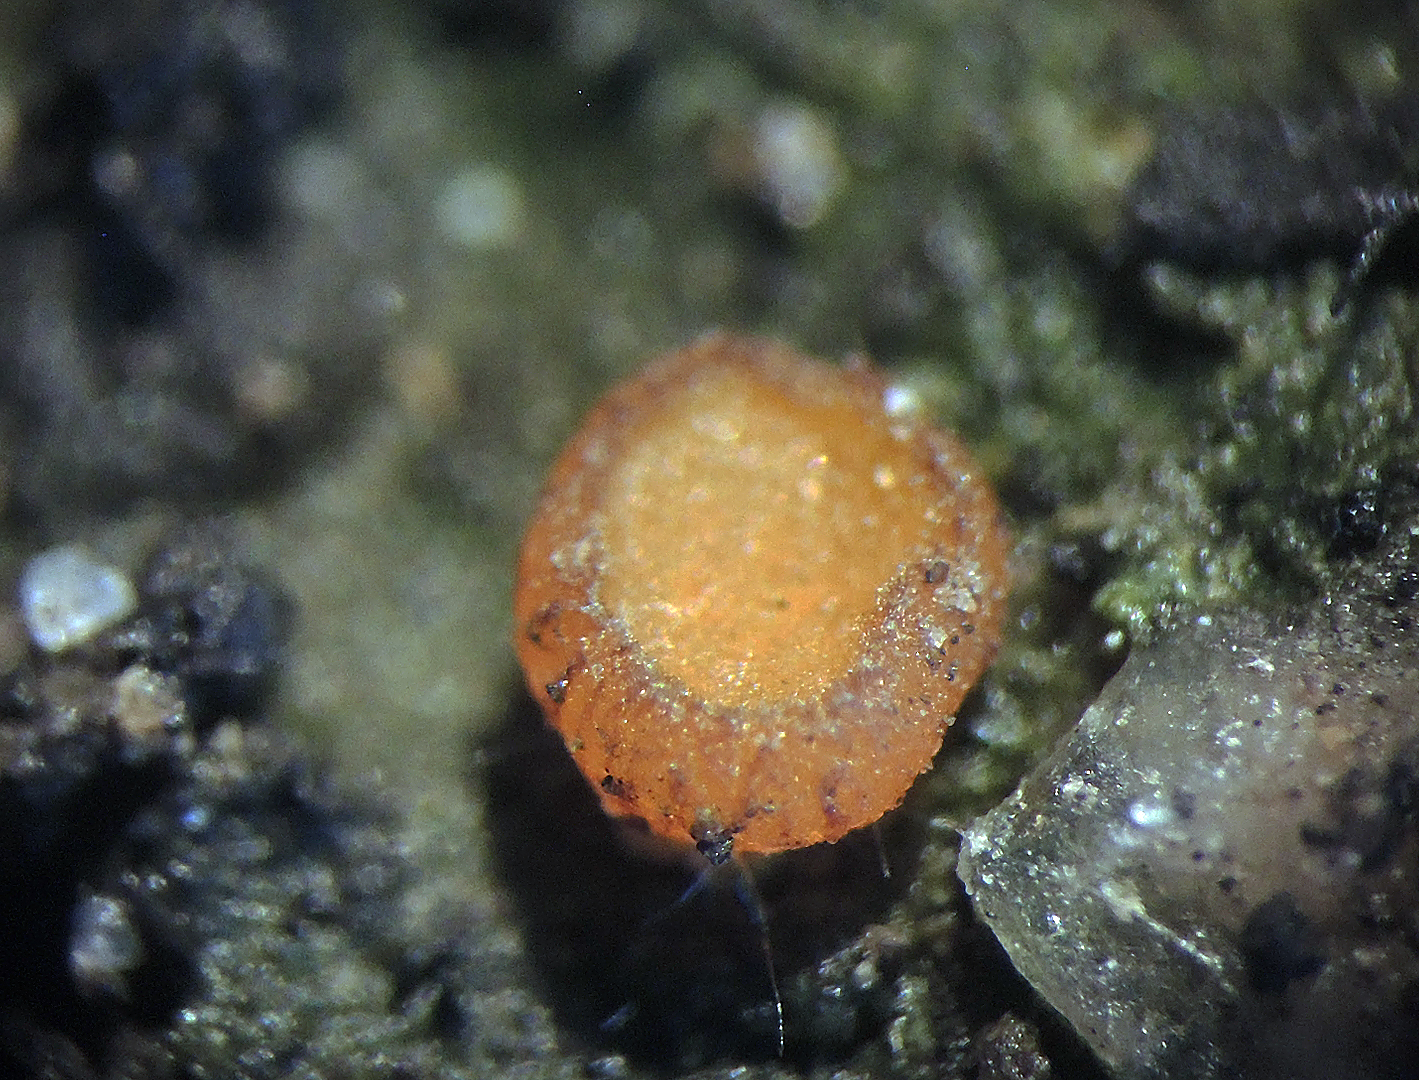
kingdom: Fungi
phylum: Ascomycota
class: Pezizomycetes
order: Pezizales
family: Pyronemataceae
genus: Anthracobia
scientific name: Anthracobia macrocystis
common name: orange ildbæger
